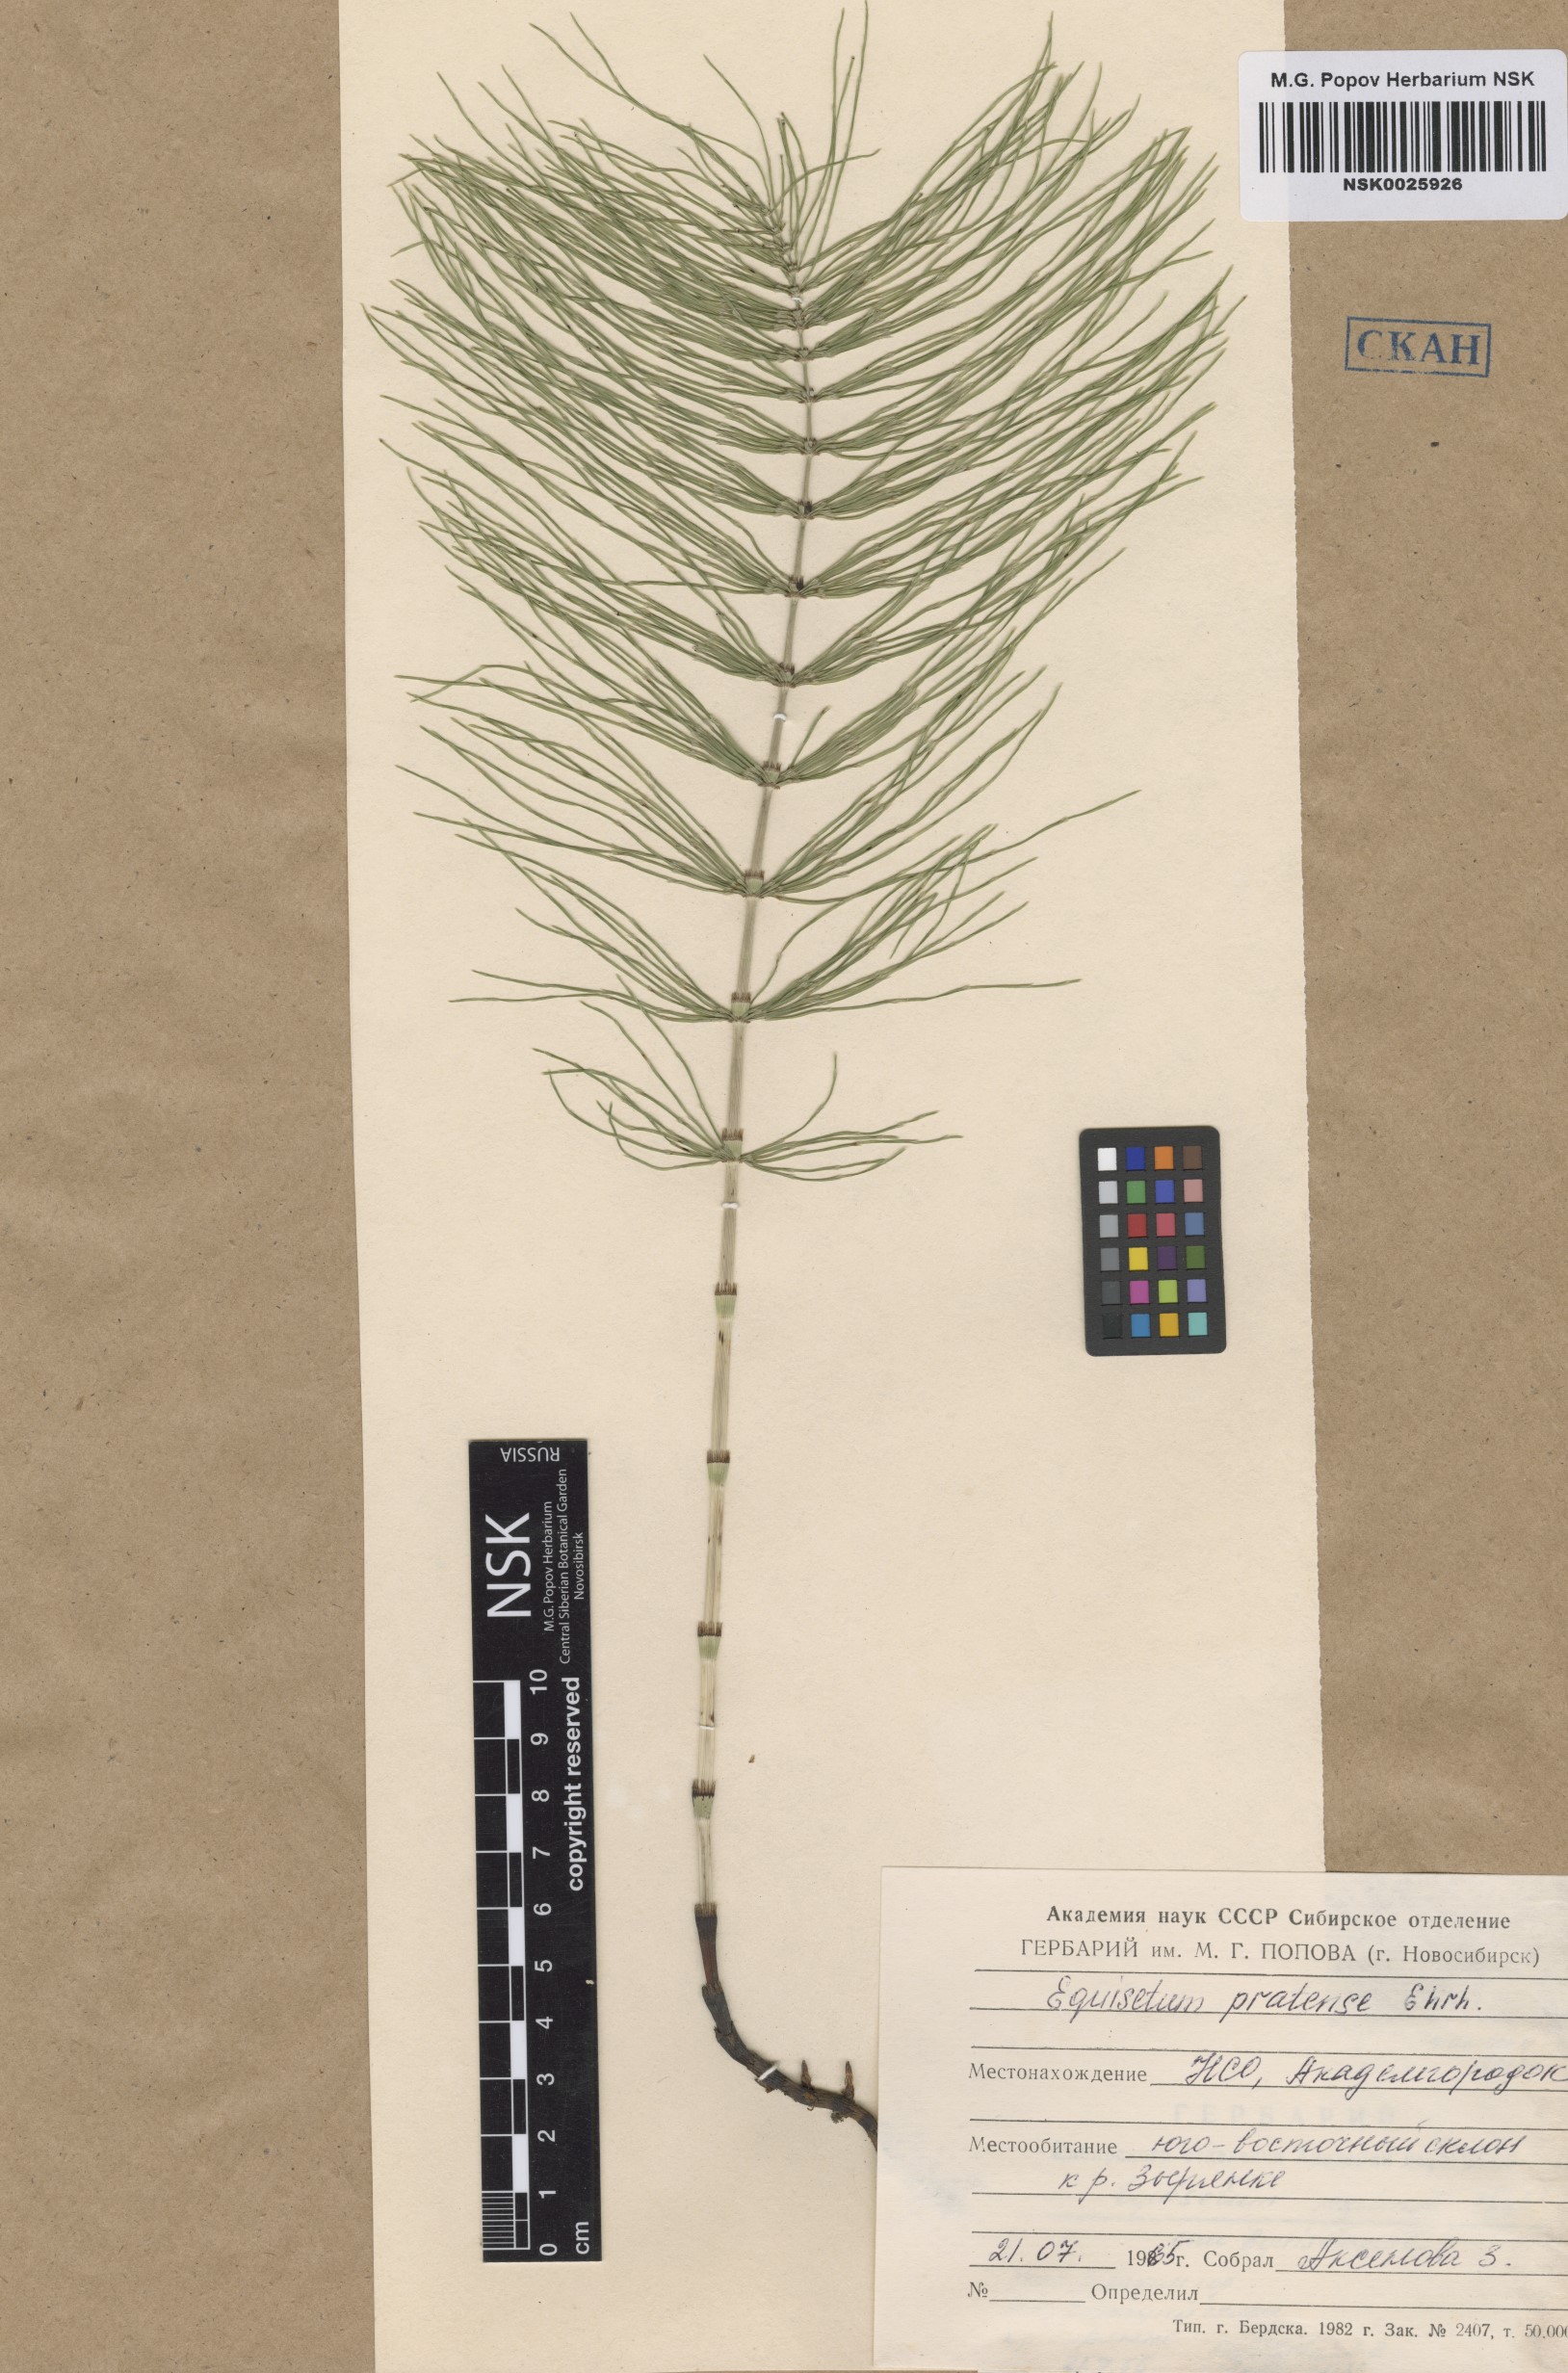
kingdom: Plantae
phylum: Tracheophyta
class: Polypodiopsida
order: Equisetales
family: Equisetaceae
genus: Equisetum
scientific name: Equisetum pratense
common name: Meadow horsetail
